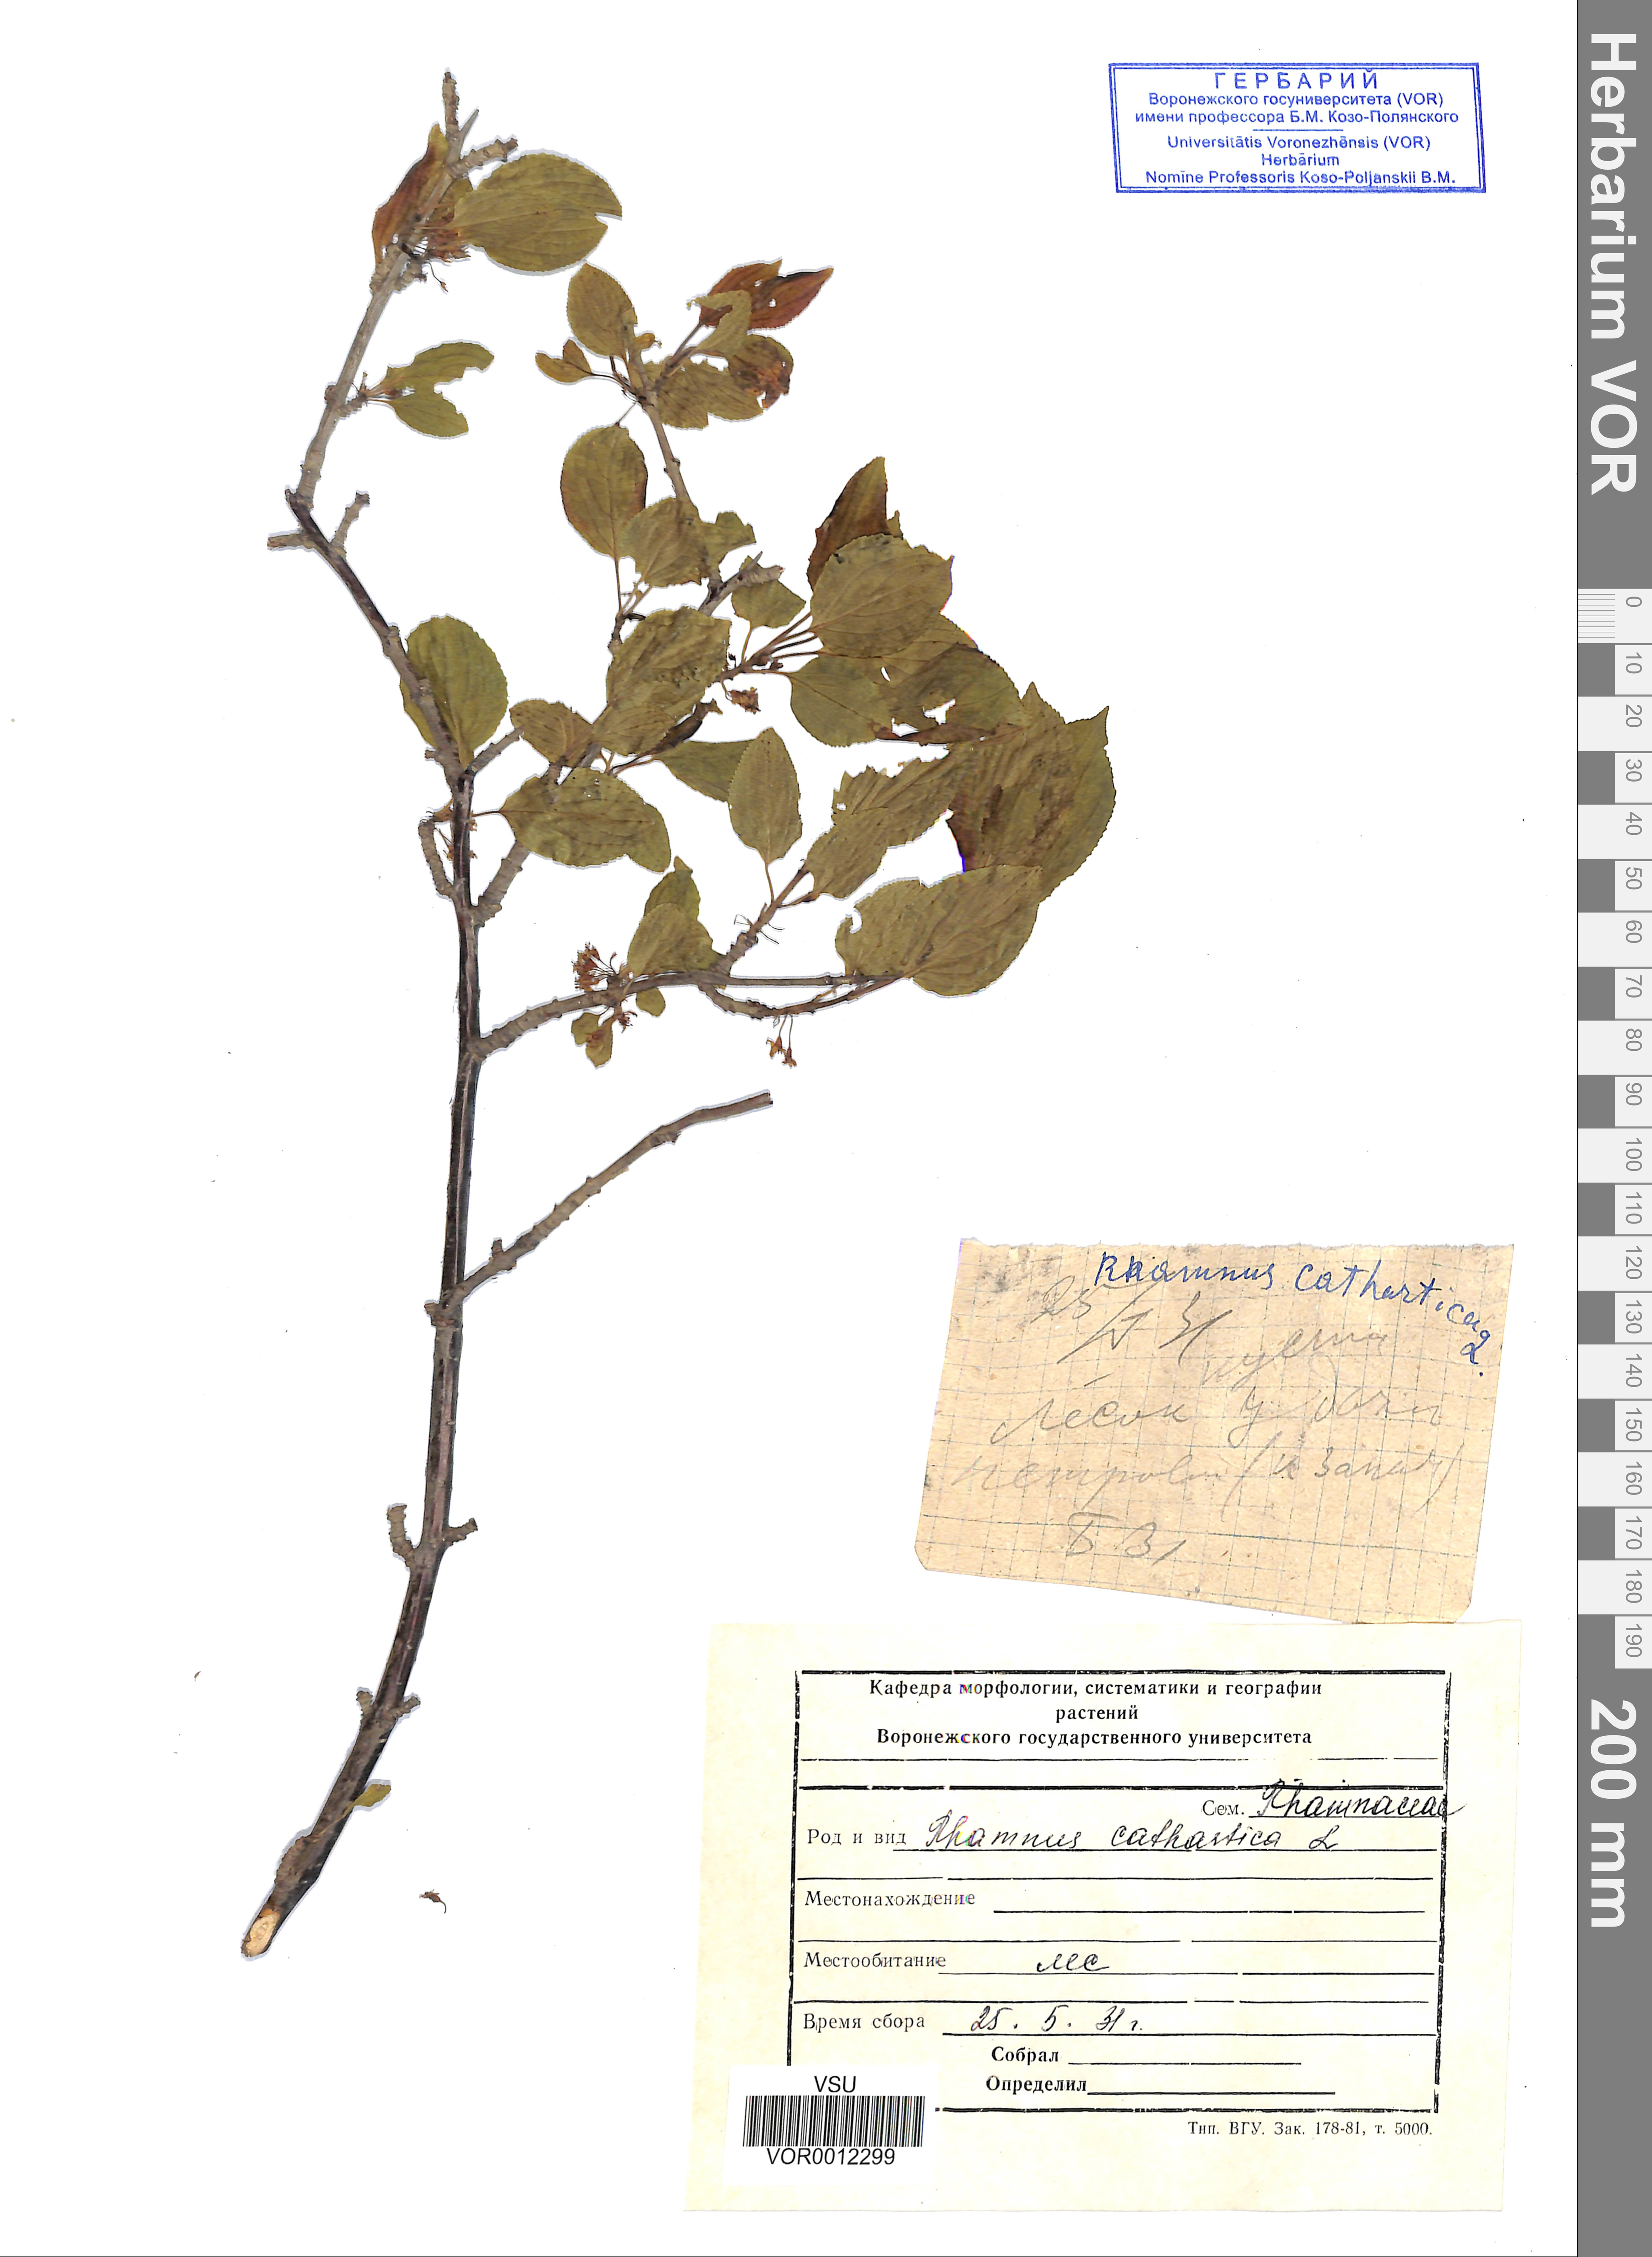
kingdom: Plantae
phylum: Tracheophyta
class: Magnoliopsida
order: Rosales
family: Rhamnaceae
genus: Rhamnus
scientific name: Rhamnus cathartica
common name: Common buckthorn
